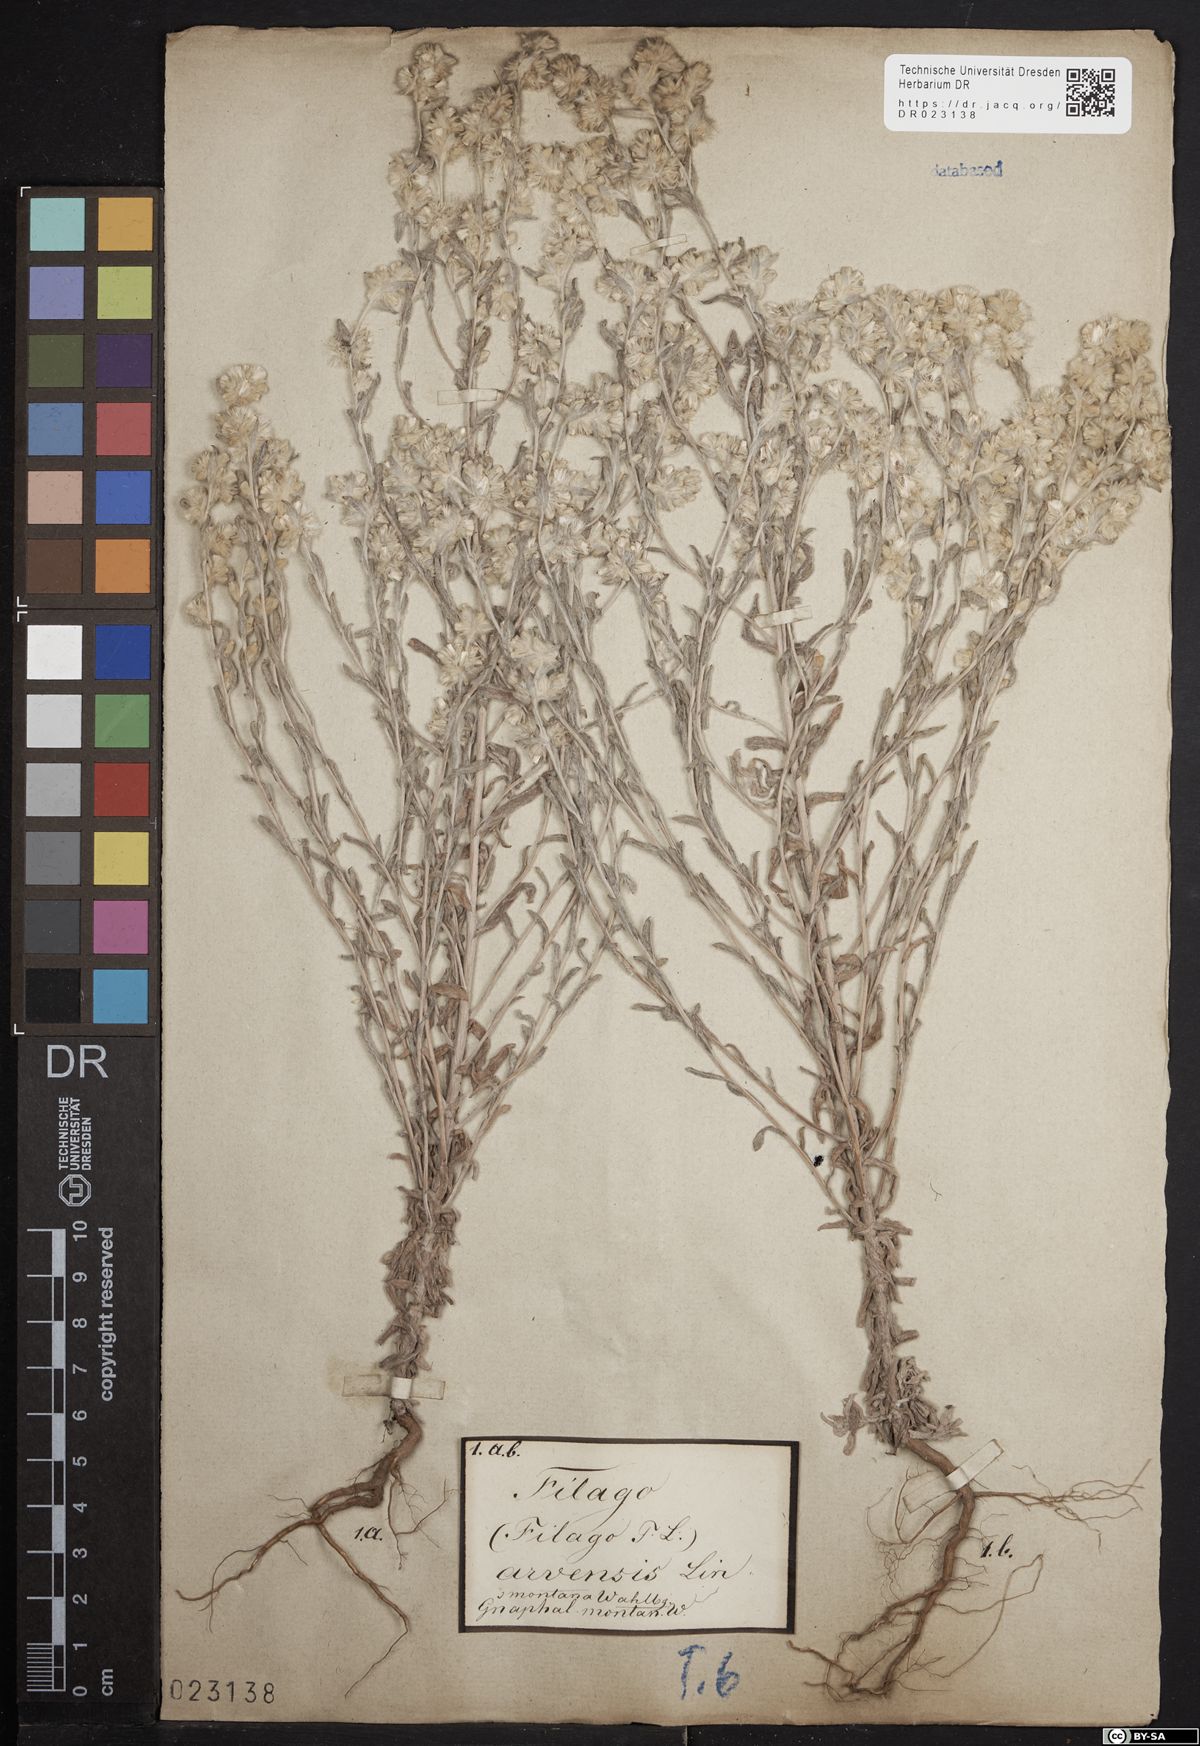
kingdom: Plantae
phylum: Tracheophyta
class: Magnoliopsida
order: Asterales
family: Asteraceae
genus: Filago
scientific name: Filago arvensis
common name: Field cudweed
